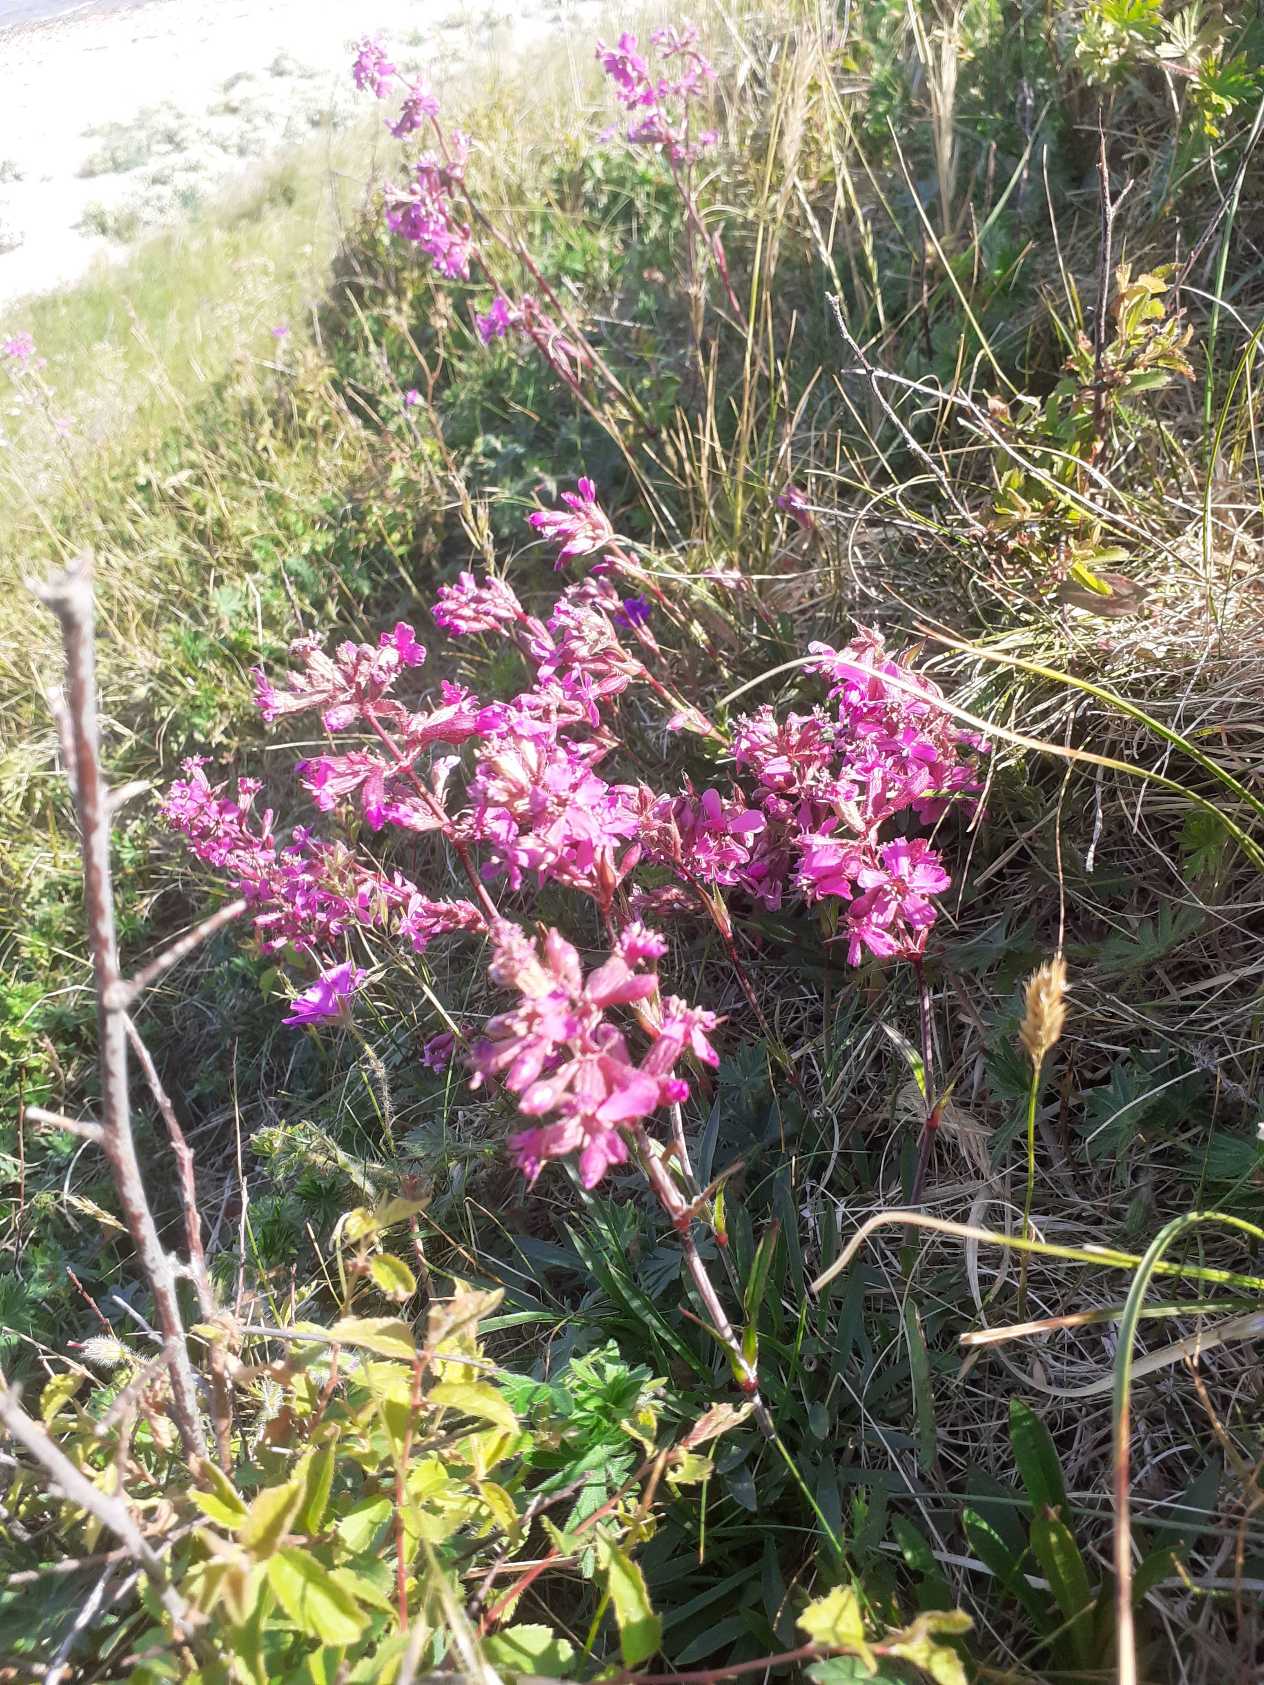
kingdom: Plantae
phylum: Tracheophyta
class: Magnoliopsida
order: Caryophyllales
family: Caryophyllaceae
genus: Viscaria
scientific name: Viscaria vulgaris
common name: Tjærenellike
